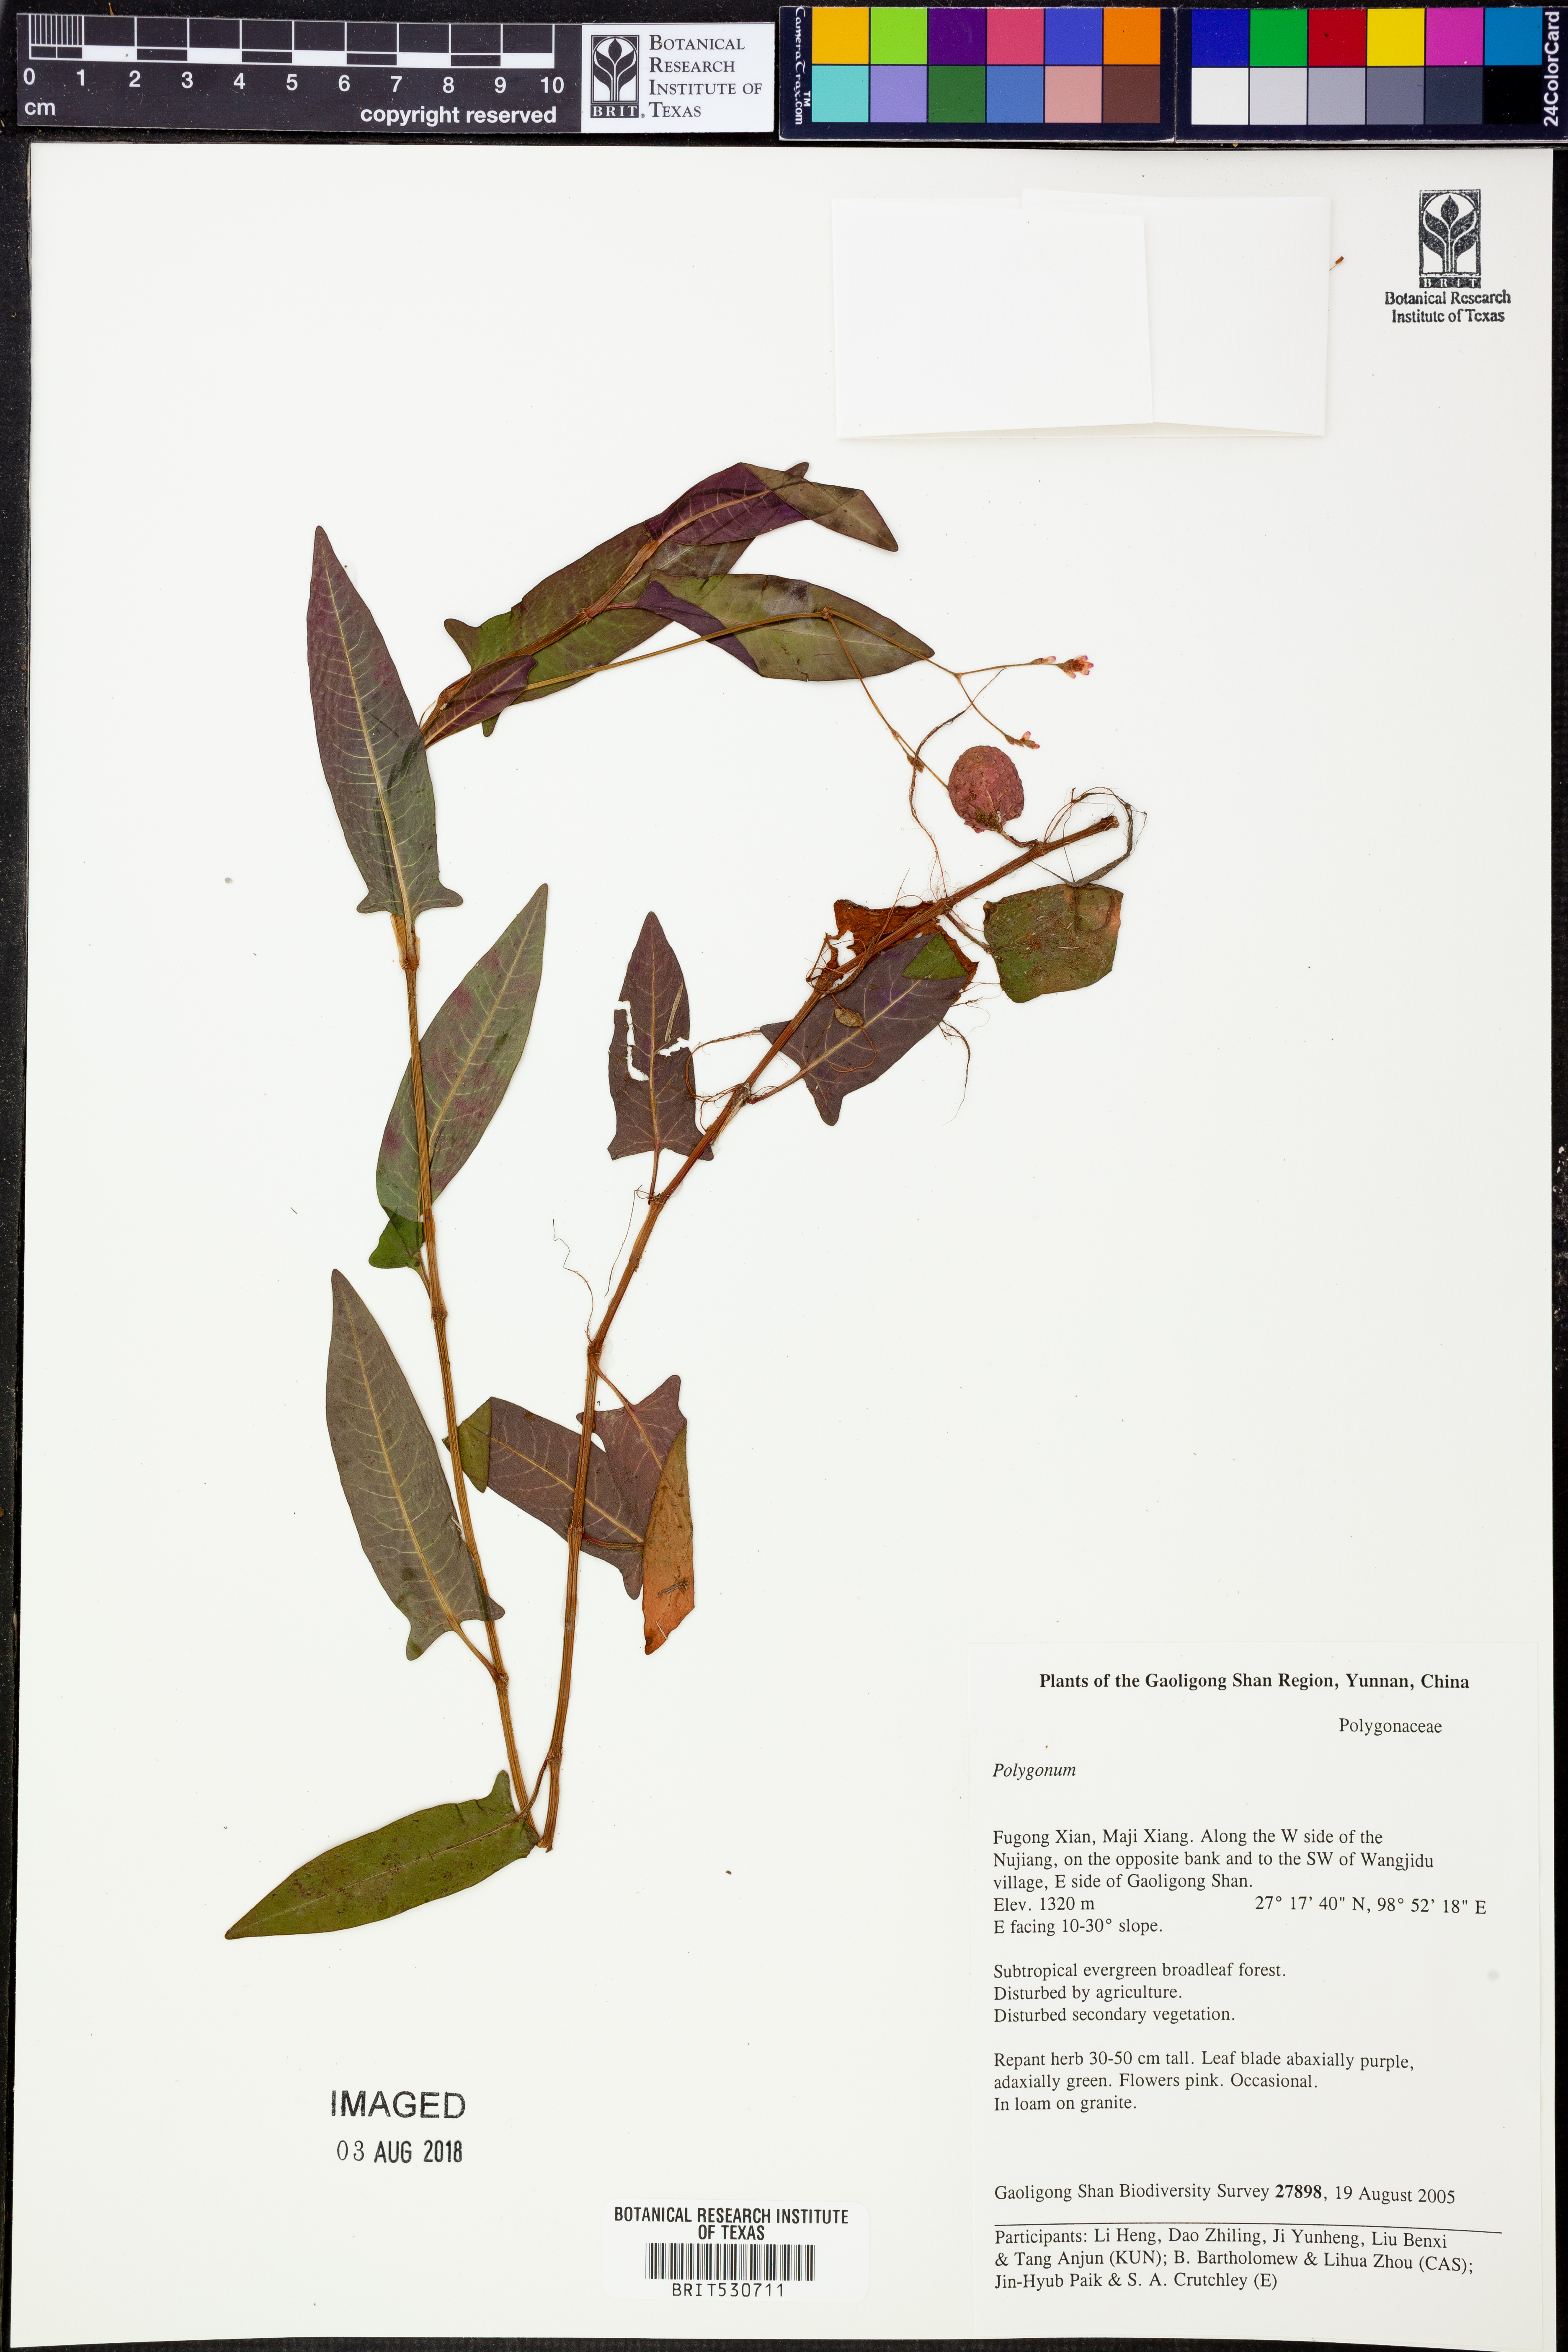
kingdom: Plantae
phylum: Tracheophyta
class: Magnoliopsida
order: Caryophyllales
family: Polygonaceae
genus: Polygonum
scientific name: Polygonum
